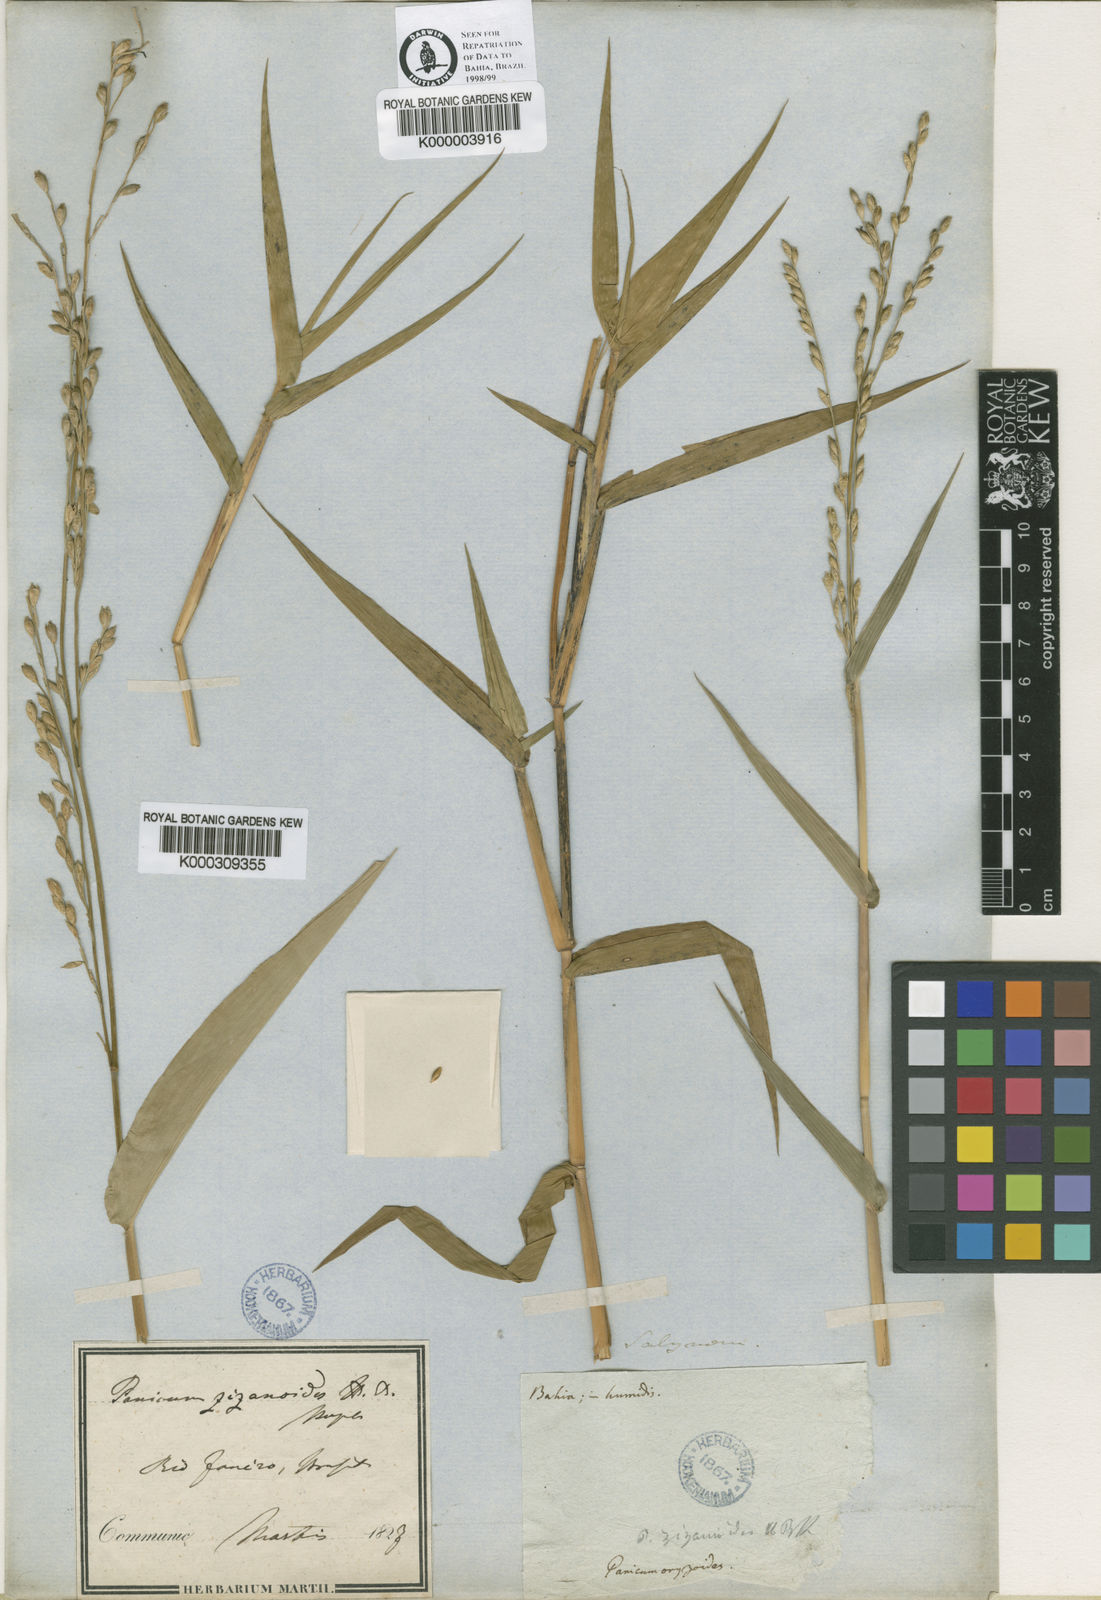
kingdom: Plantae
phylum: Tracheophyta
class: Liliopsida
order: Poales
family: Poaceae
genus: Acroceras
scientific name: Acroceras zizanioides
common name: Oat grass
